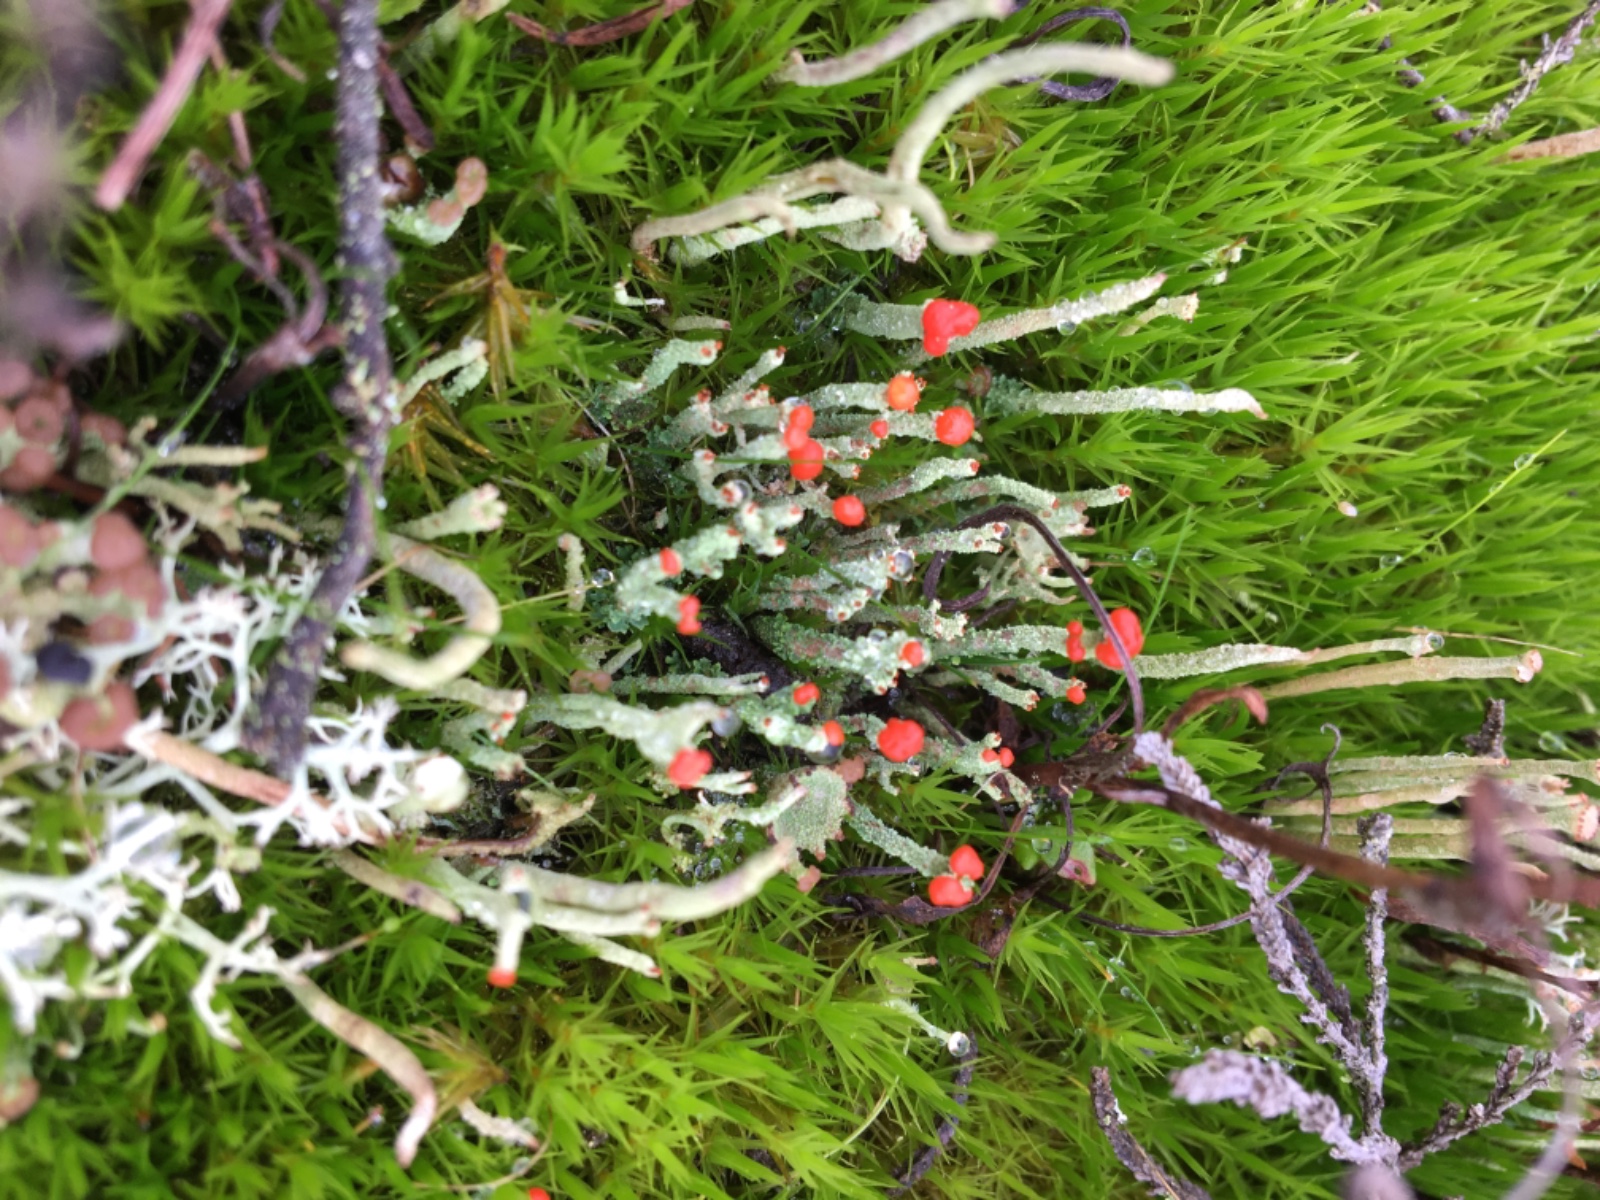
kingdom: Fungi
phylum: Ascomycota
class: Lecanoromycetes
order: Lecanorales
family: Cladoniaceae
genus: Cladonia
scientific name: Cladonia floerkeana
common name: lakrød bægerlav
